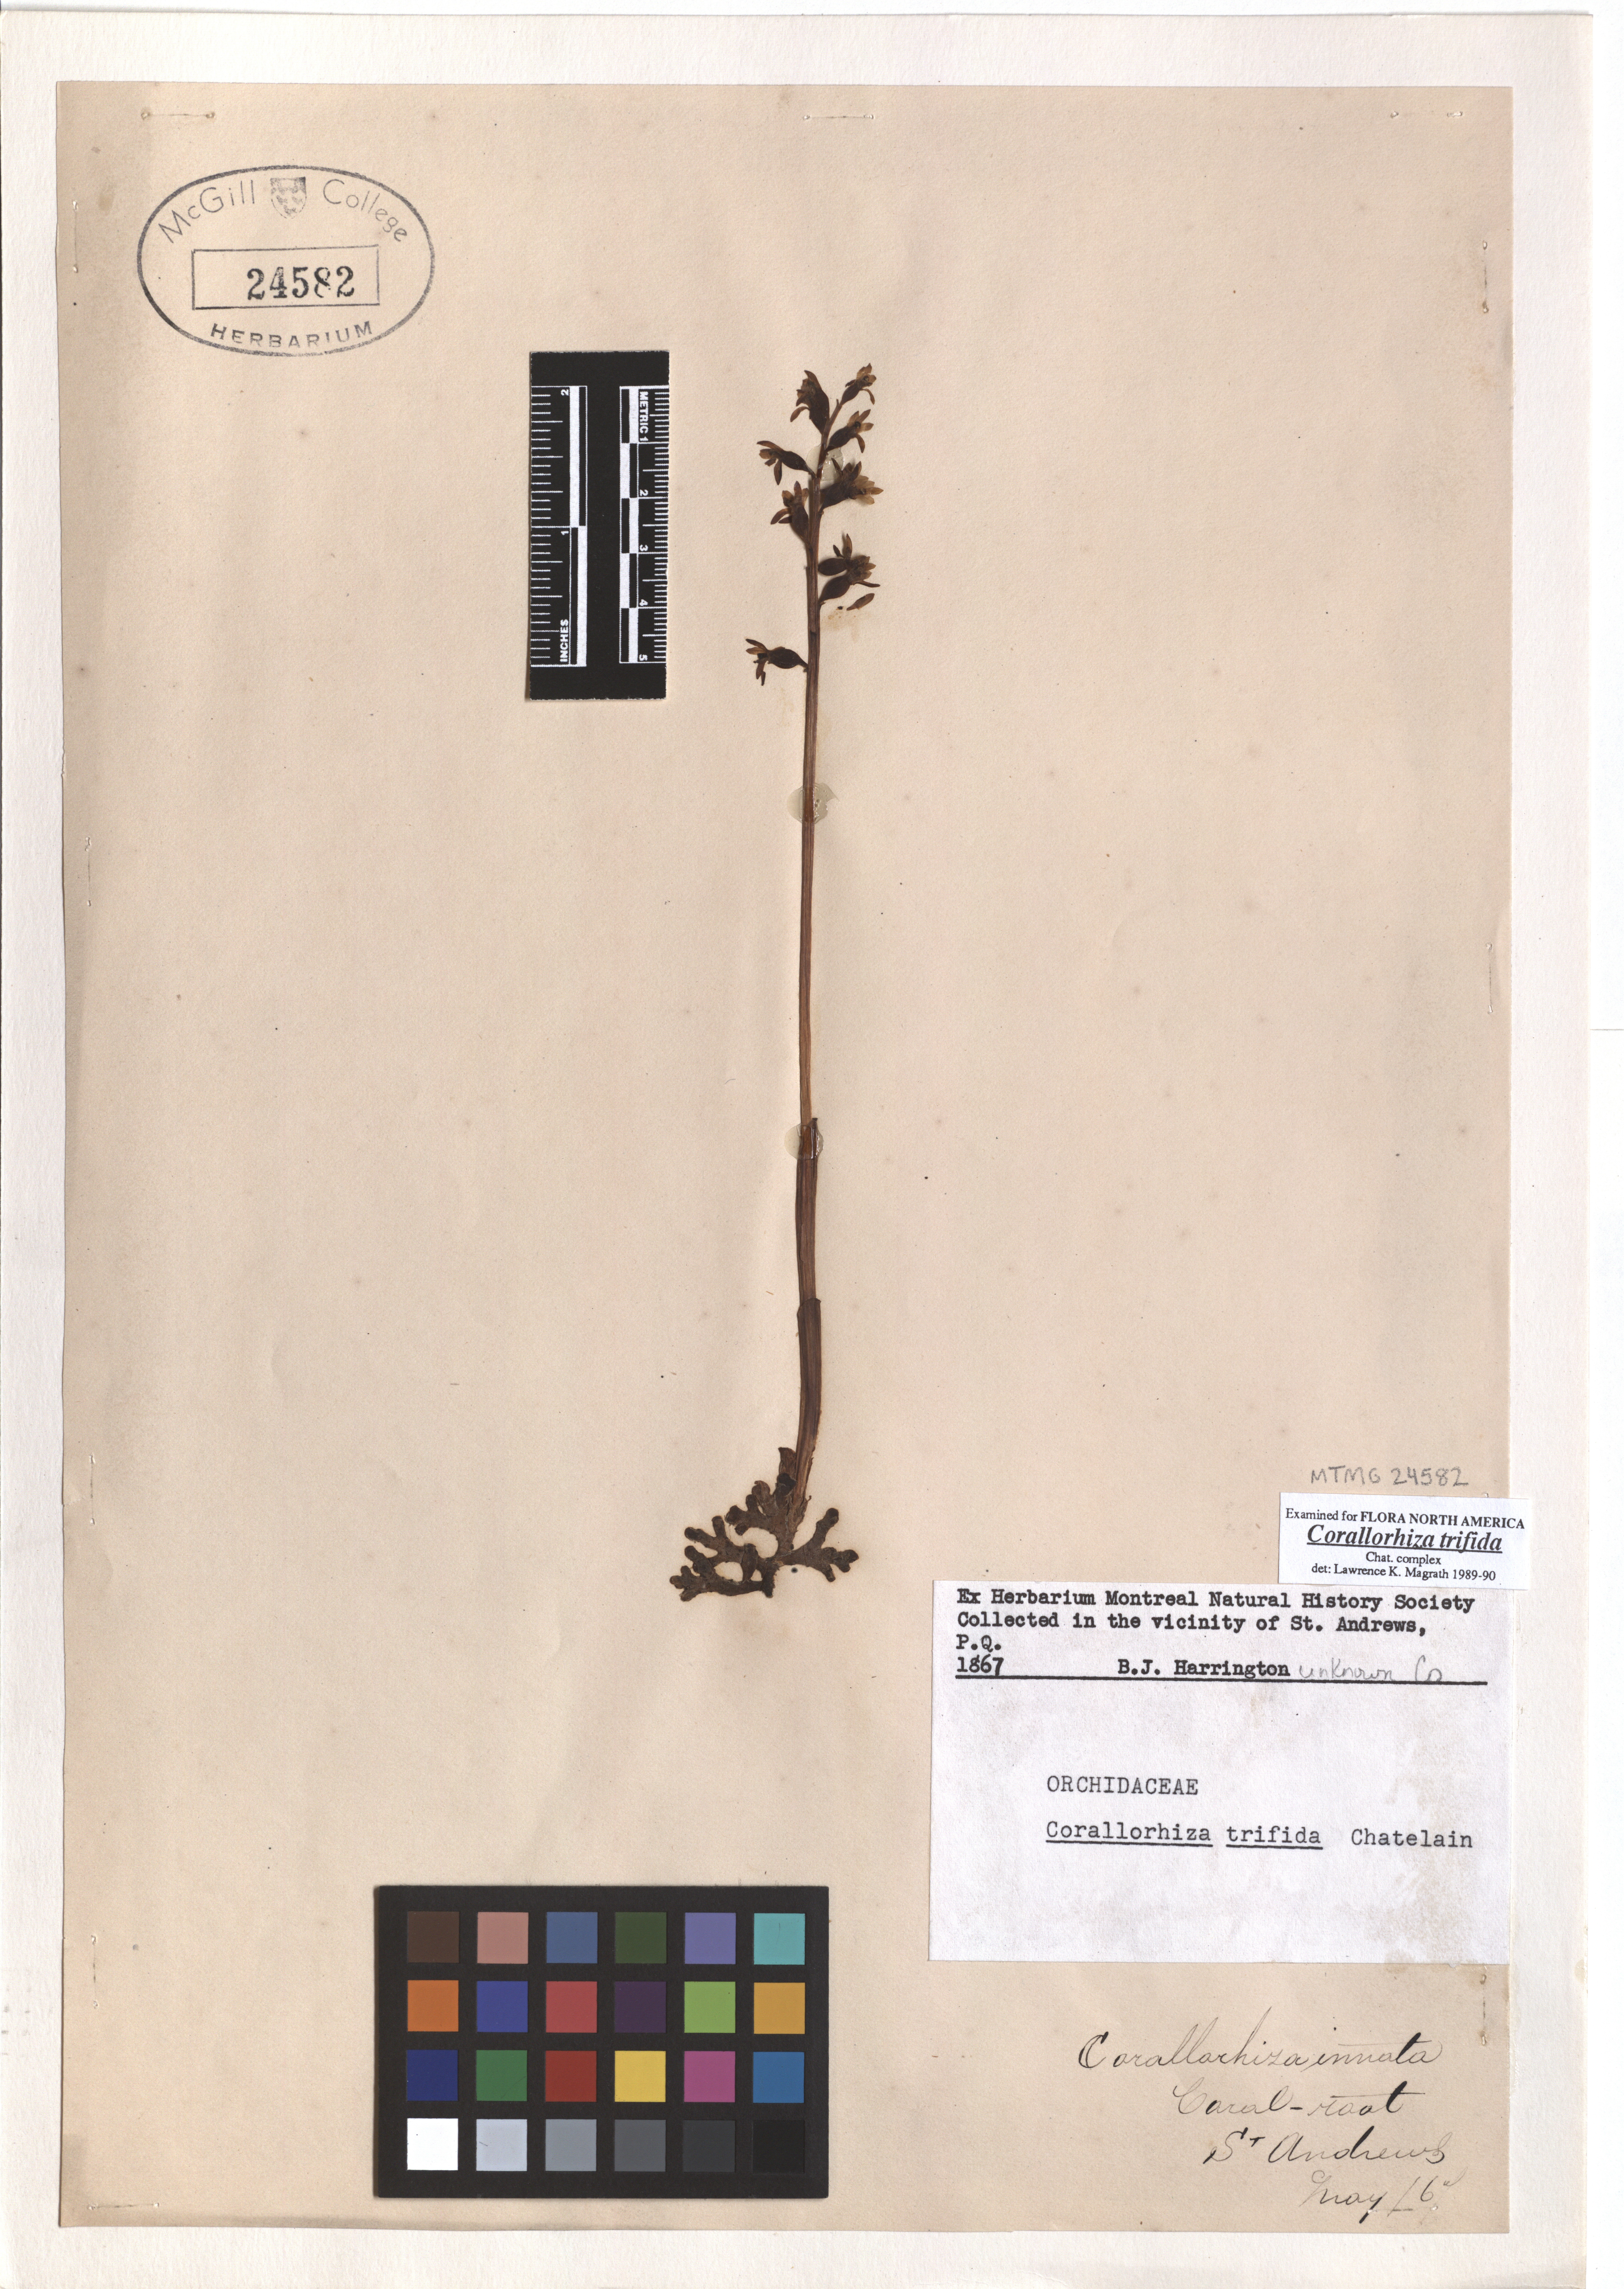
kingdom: Plantae
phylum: Tracheophyta
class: Liliopsida
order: Asparagales
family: Orchidaceae
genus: Corallorhiza
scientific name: Corallorhiza trifida
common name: Yellow coralroot
